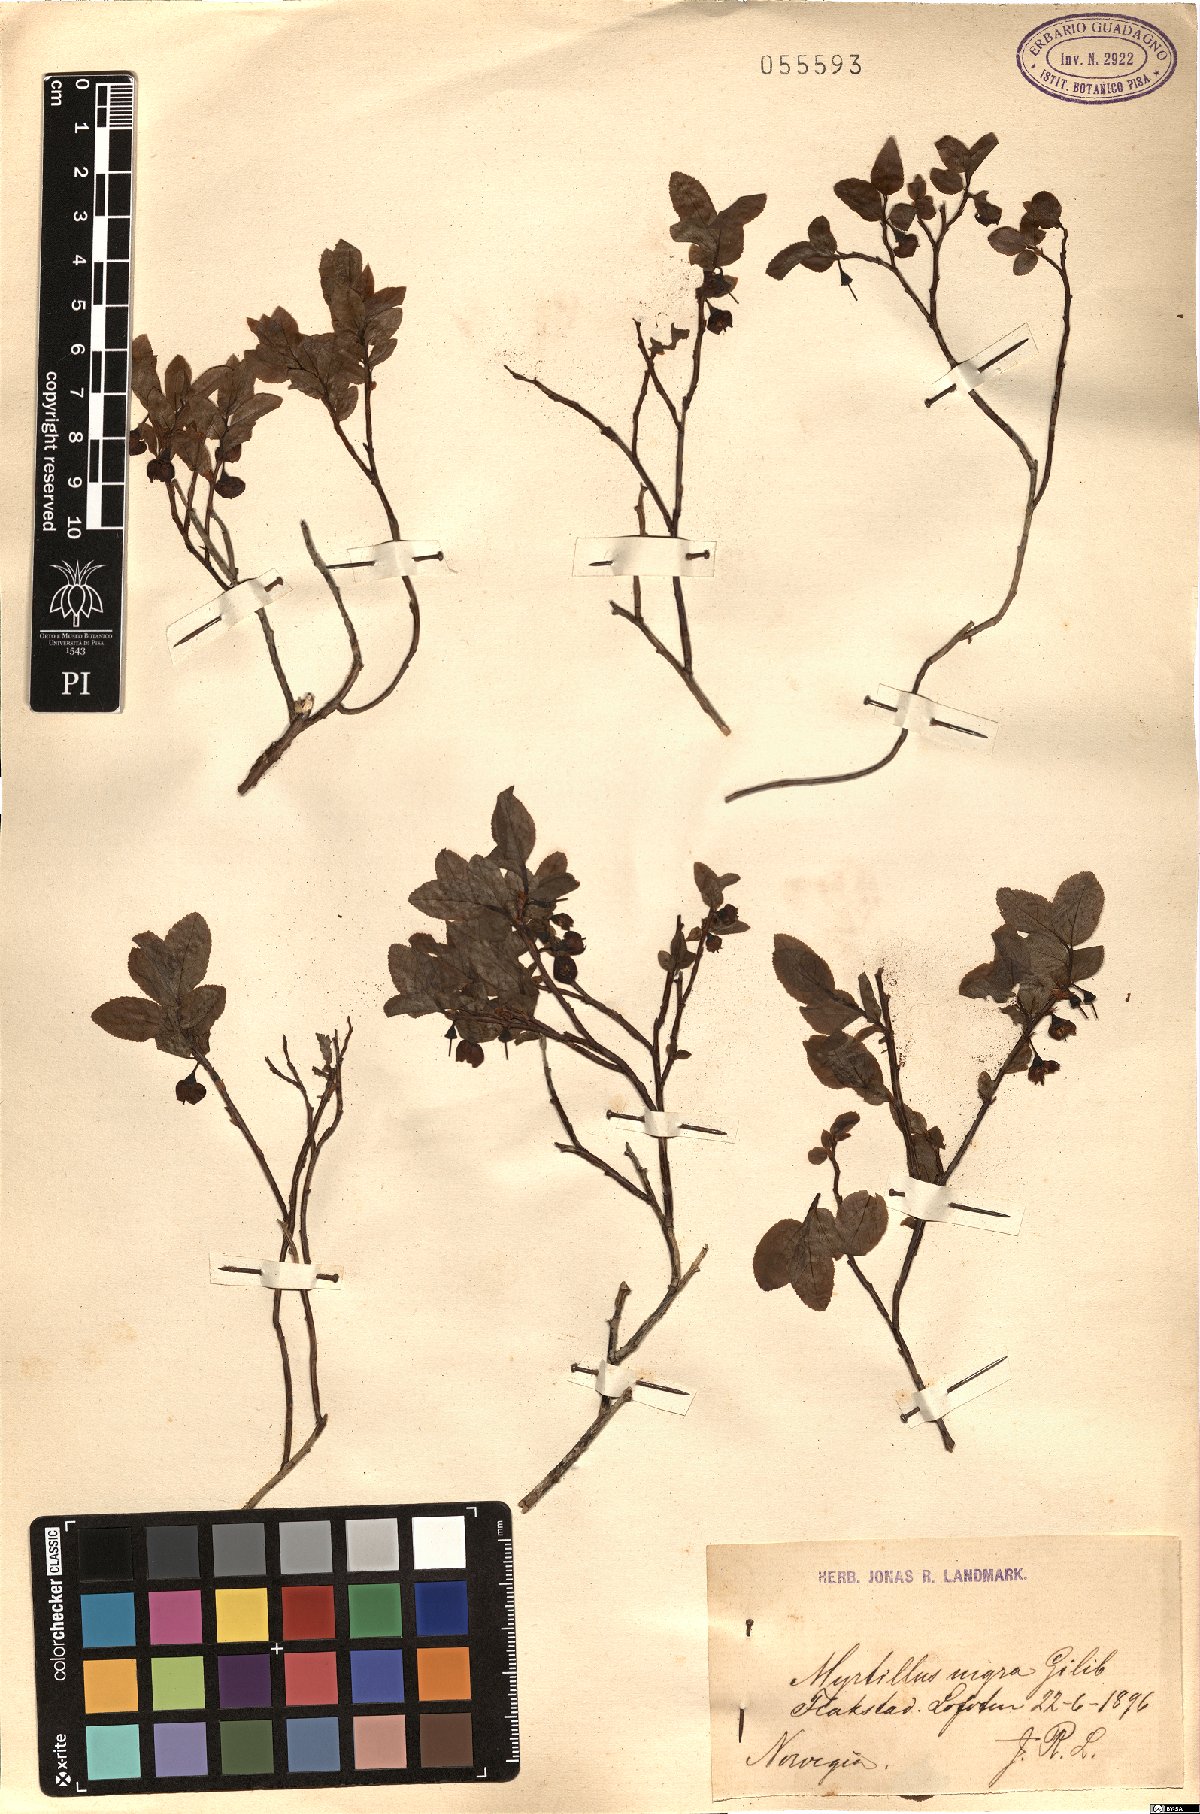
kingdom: Plantae
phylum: Tracheophyta
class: Magnoliopsida
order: Ericales
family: Ericaceae
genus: Vaccinium
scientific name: Vaccinium myrtillus
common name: Bilberry
